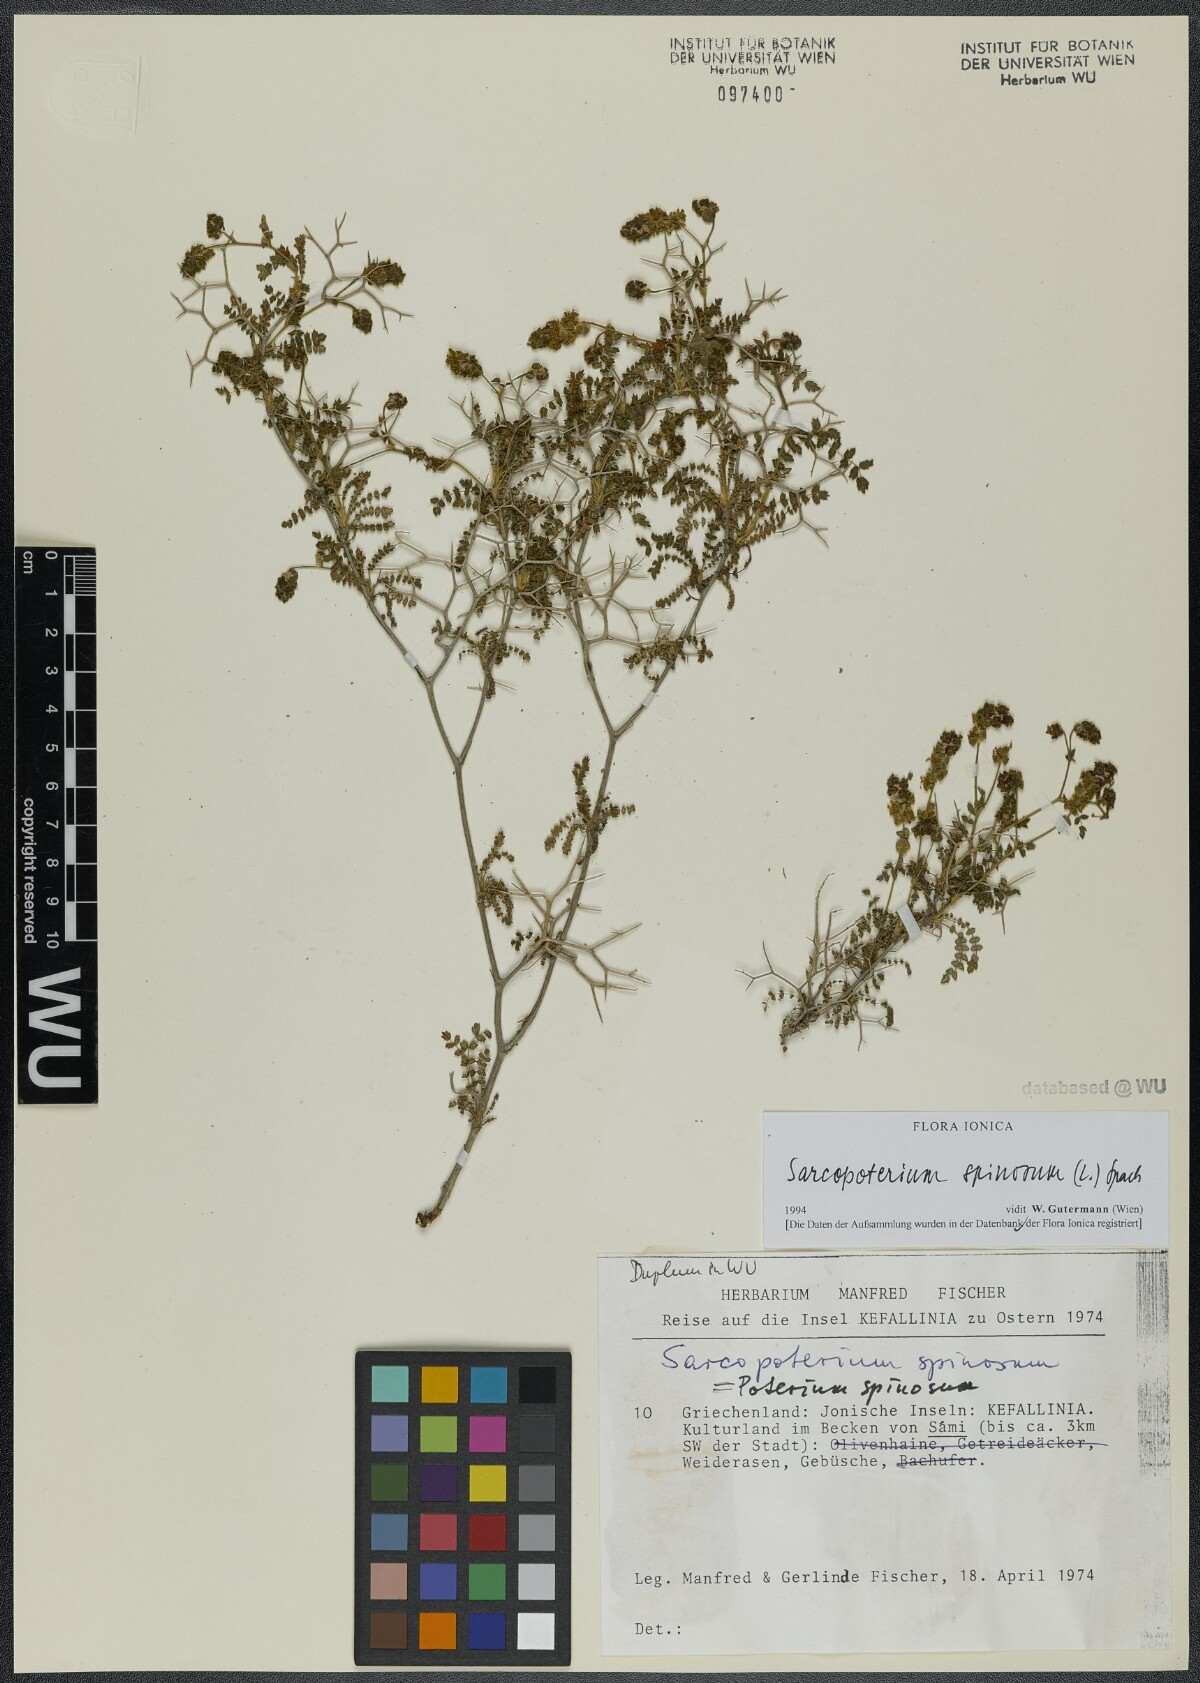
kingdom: Plantae
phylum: Tracheophyta
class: Magnoliopsida
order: Rosales
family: Rosaceae
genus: Sarcopoterium
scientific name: Sarcopoterium spinosum
